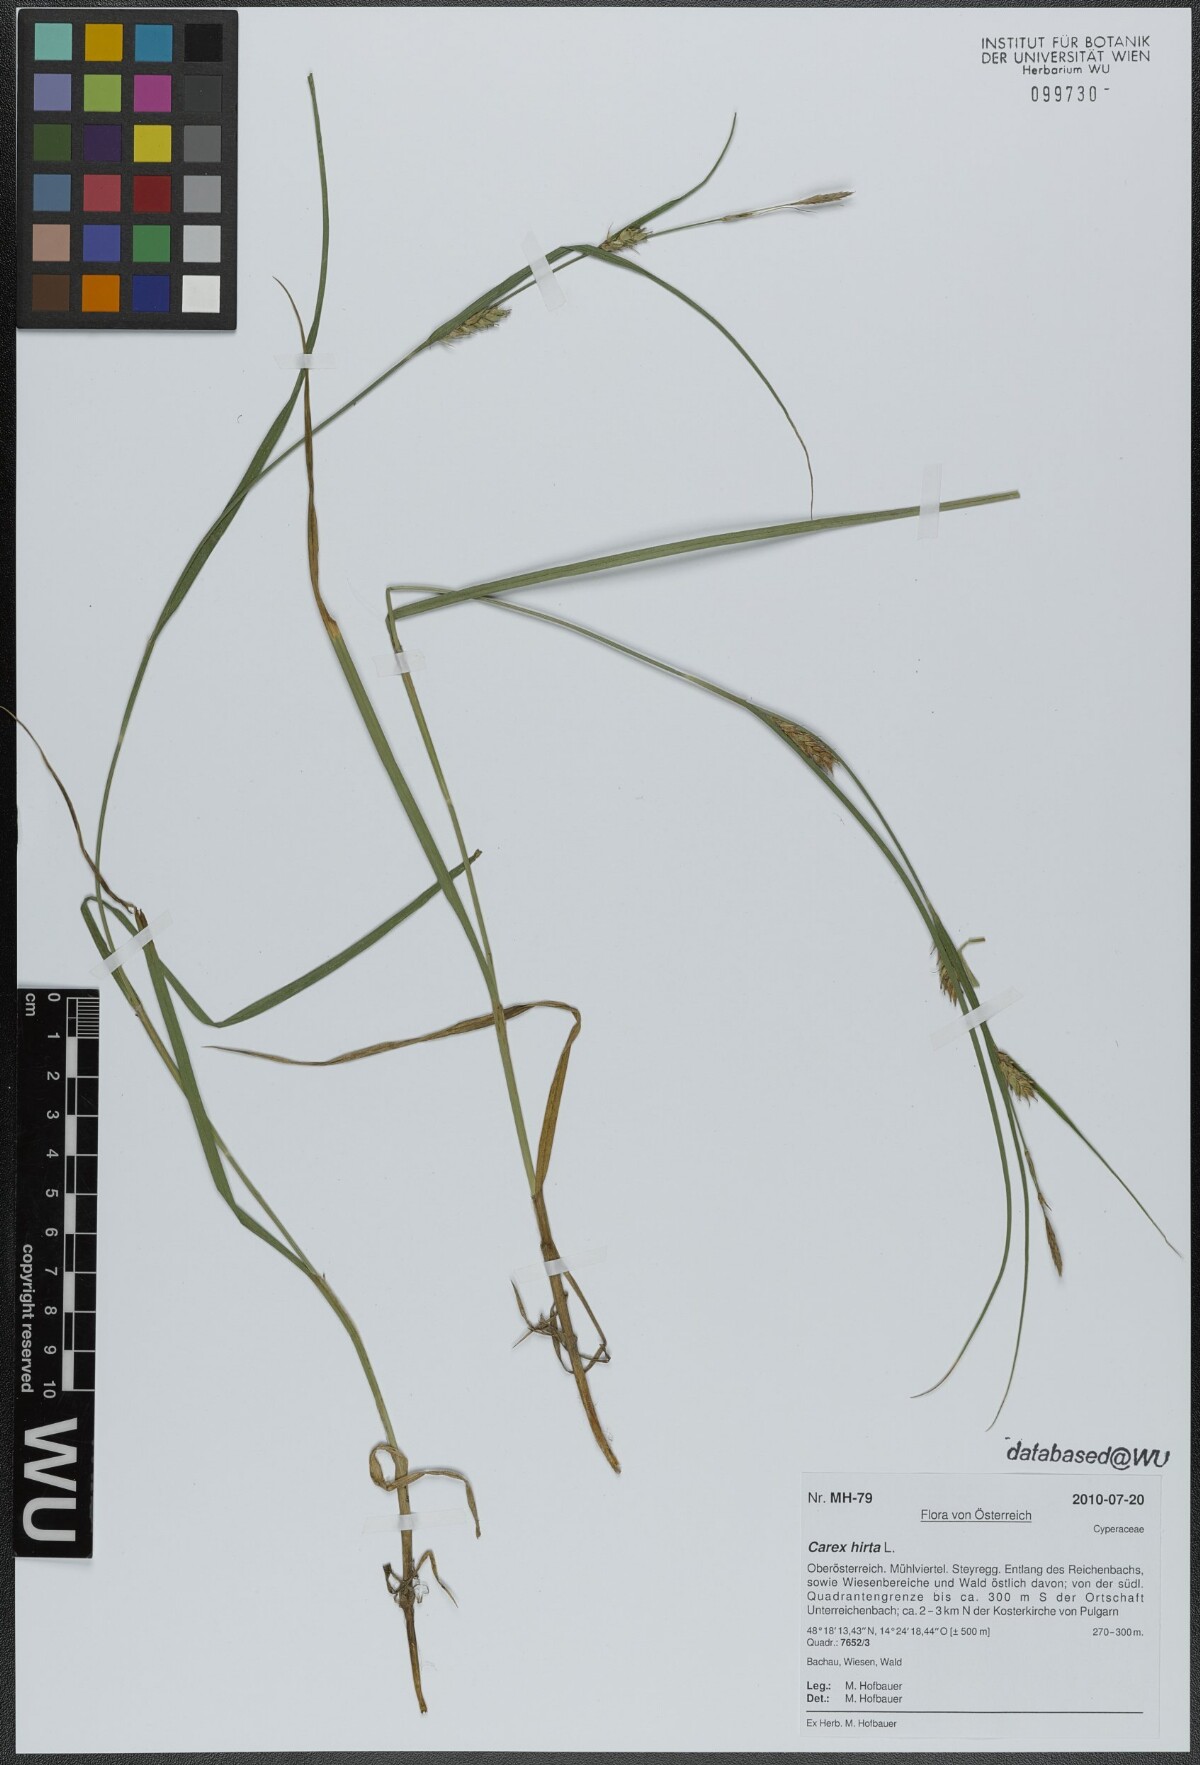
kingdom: Plantae
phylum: Tracheophyta
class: Liliopsida
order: Poales
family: Cyperaceae
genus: Carex
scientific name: Carex hirta
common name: Hairy sedge
